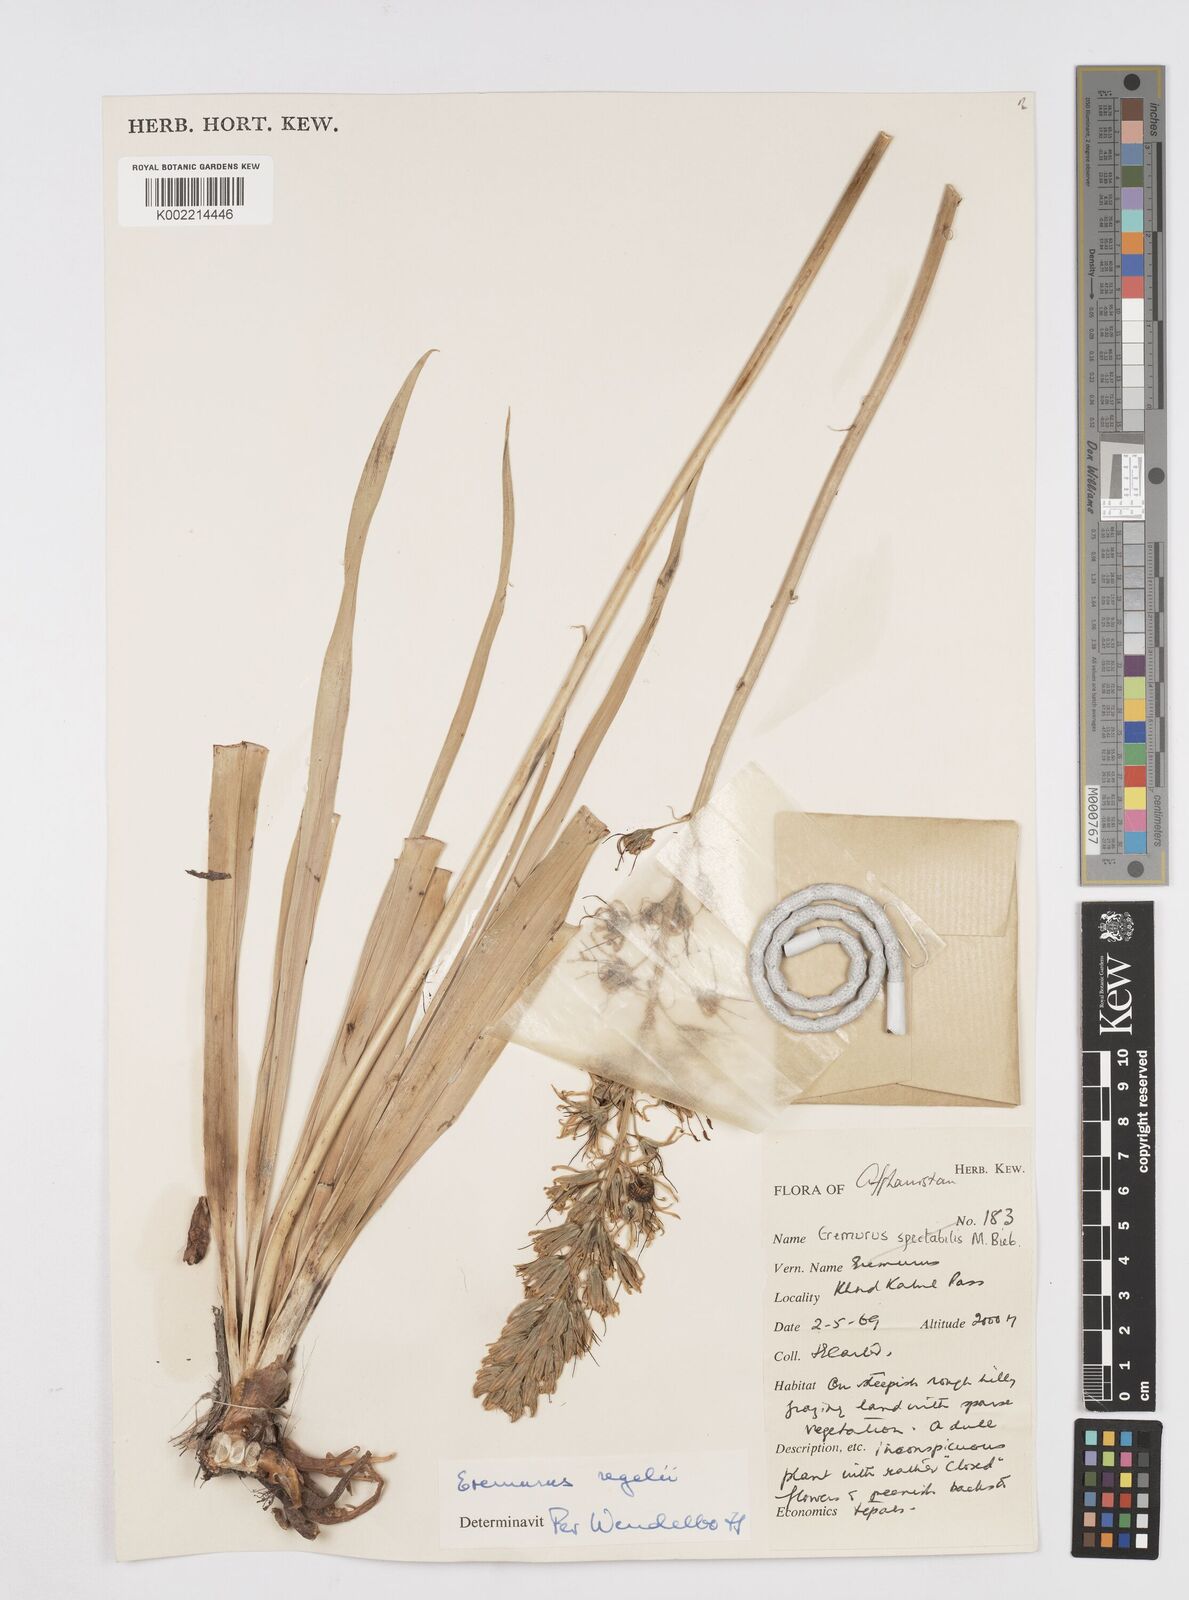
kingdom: Plantae
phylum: Tracheophyta
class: Liliopsida
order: Asparagales
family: Asphodelaceae
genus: Eremurus
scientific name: Eremurus regelii
